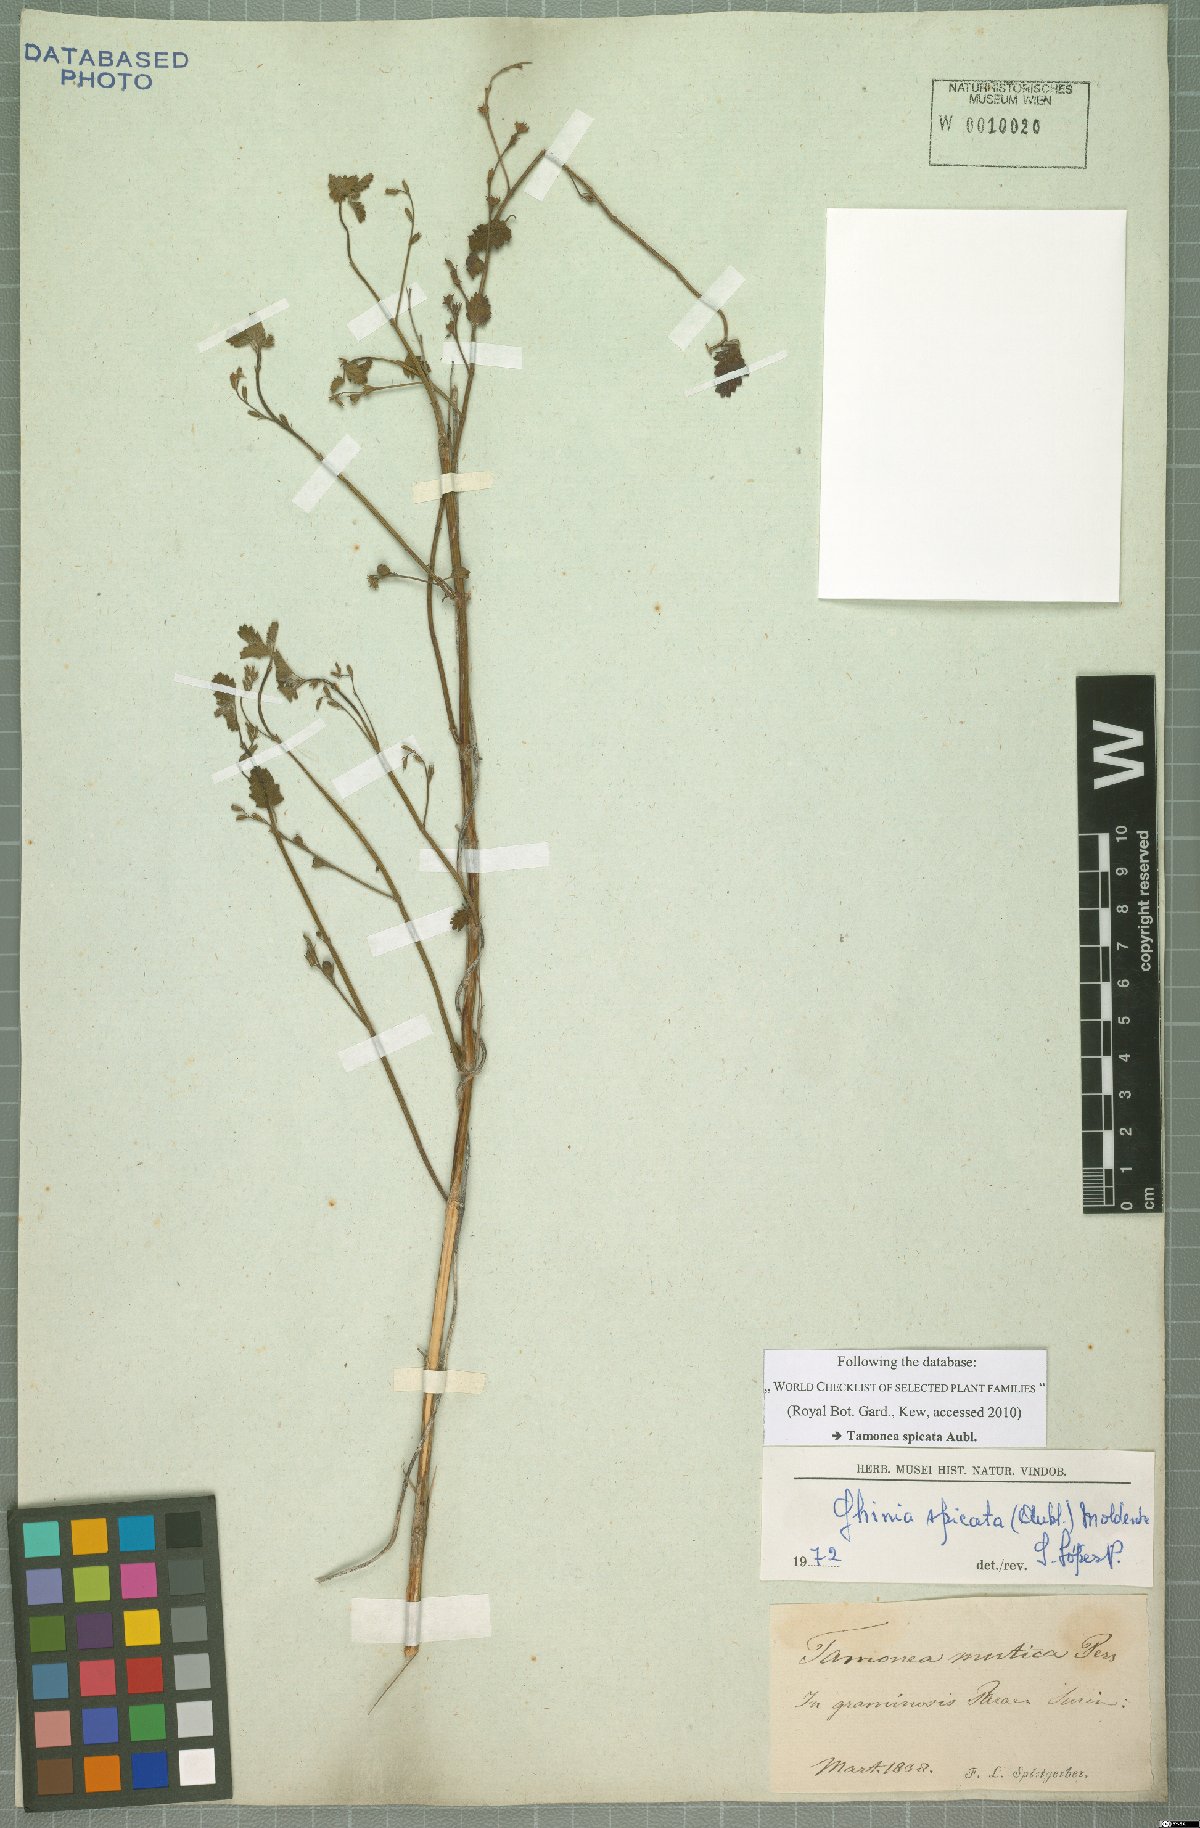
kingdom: Plantae
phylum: Tracheophyta
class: Magnoliopsida
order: Lamiales
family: Verbenaceae
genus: Tamonea
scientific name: Tamonea spicata
